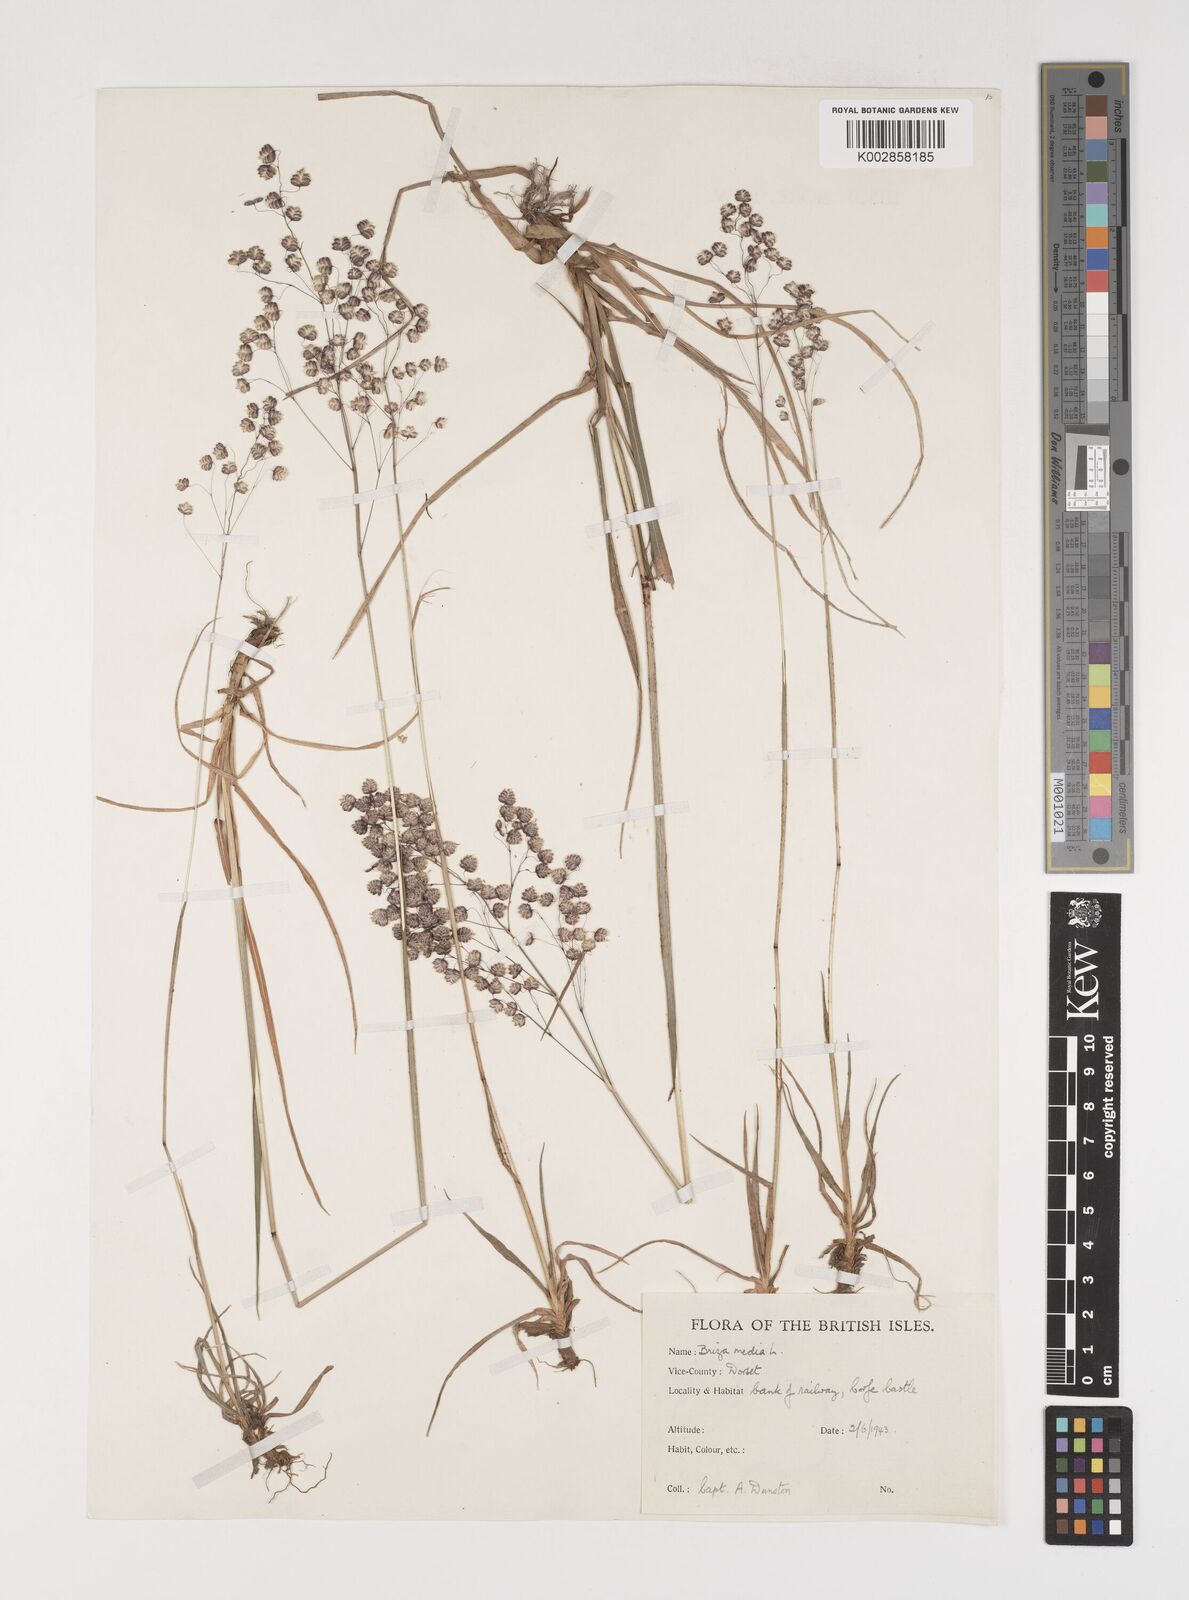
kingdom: Plantae
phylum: Tracheophyta
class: Liliopsida
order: Poales
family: Poaceae
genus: Briza
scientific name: Briza media
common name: Quaking grass
